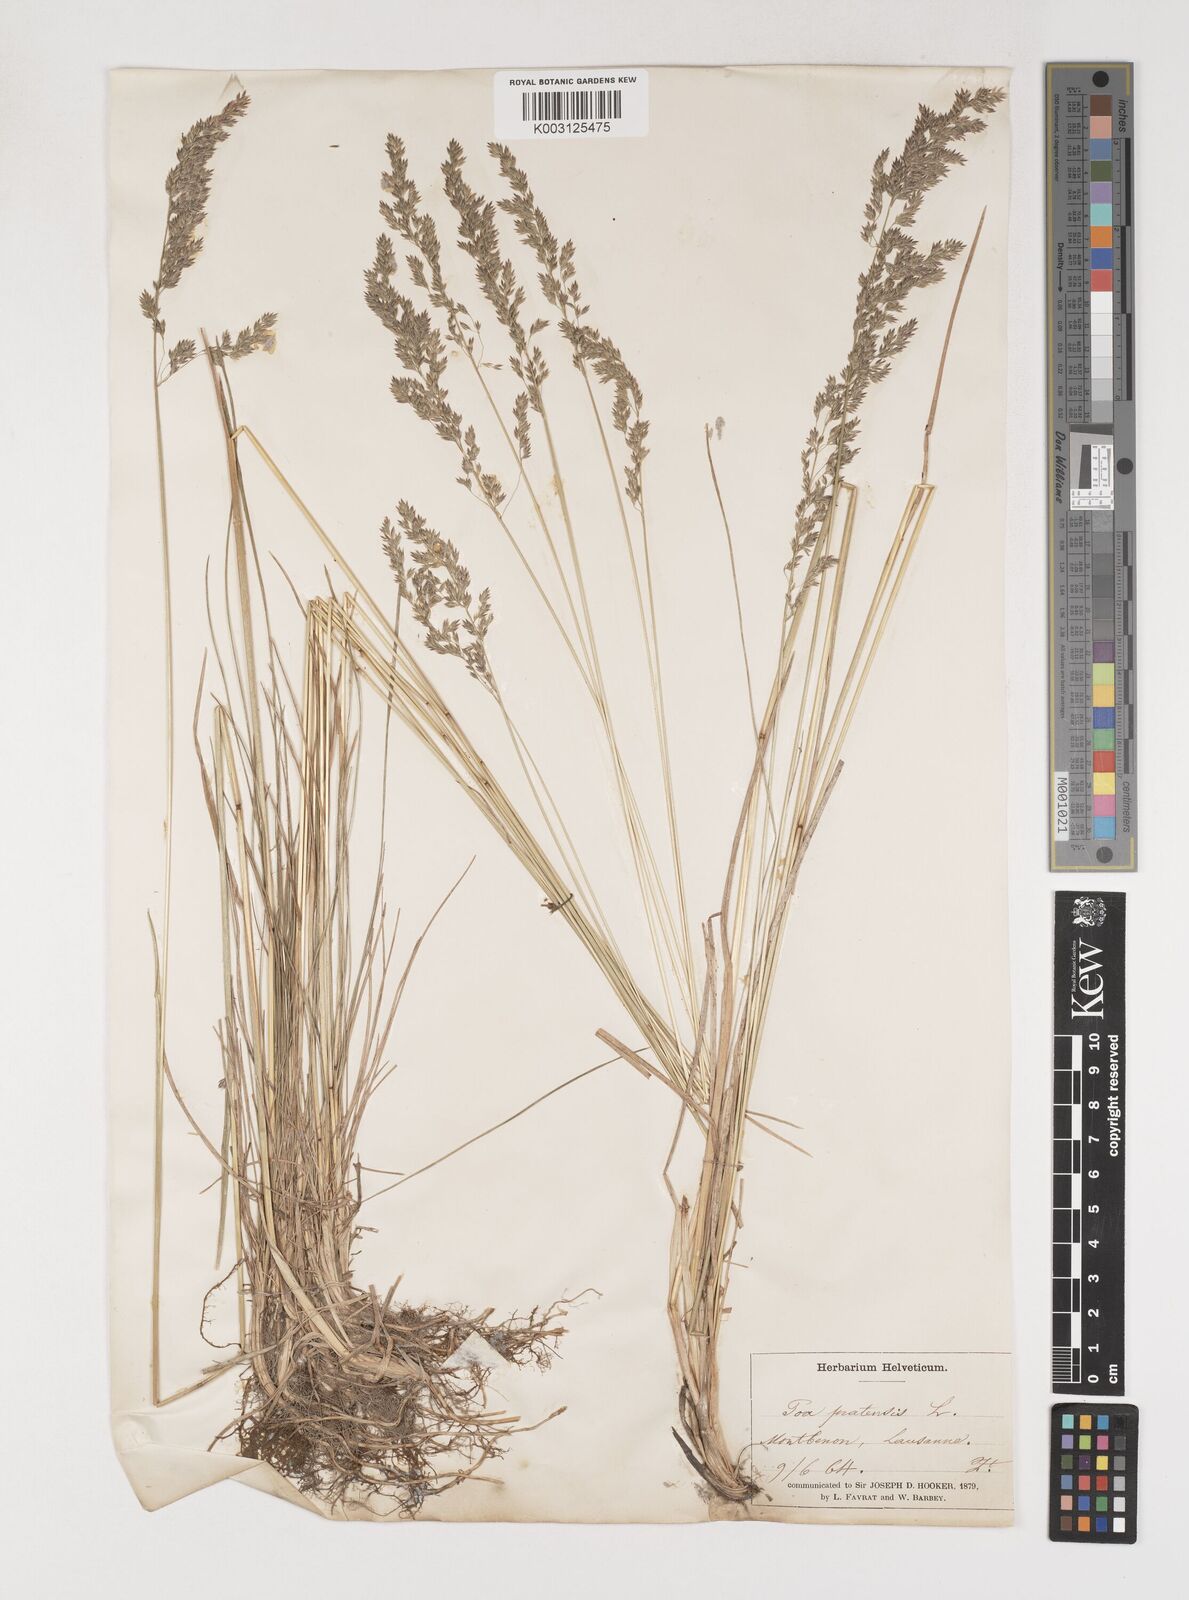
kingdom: Plantae
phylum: Tracheophyta
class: Liliopsida
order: Poales
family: Poaceae
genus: Poa
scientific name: Poa angustifolia
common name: Narrow-leaved meadow-grass
